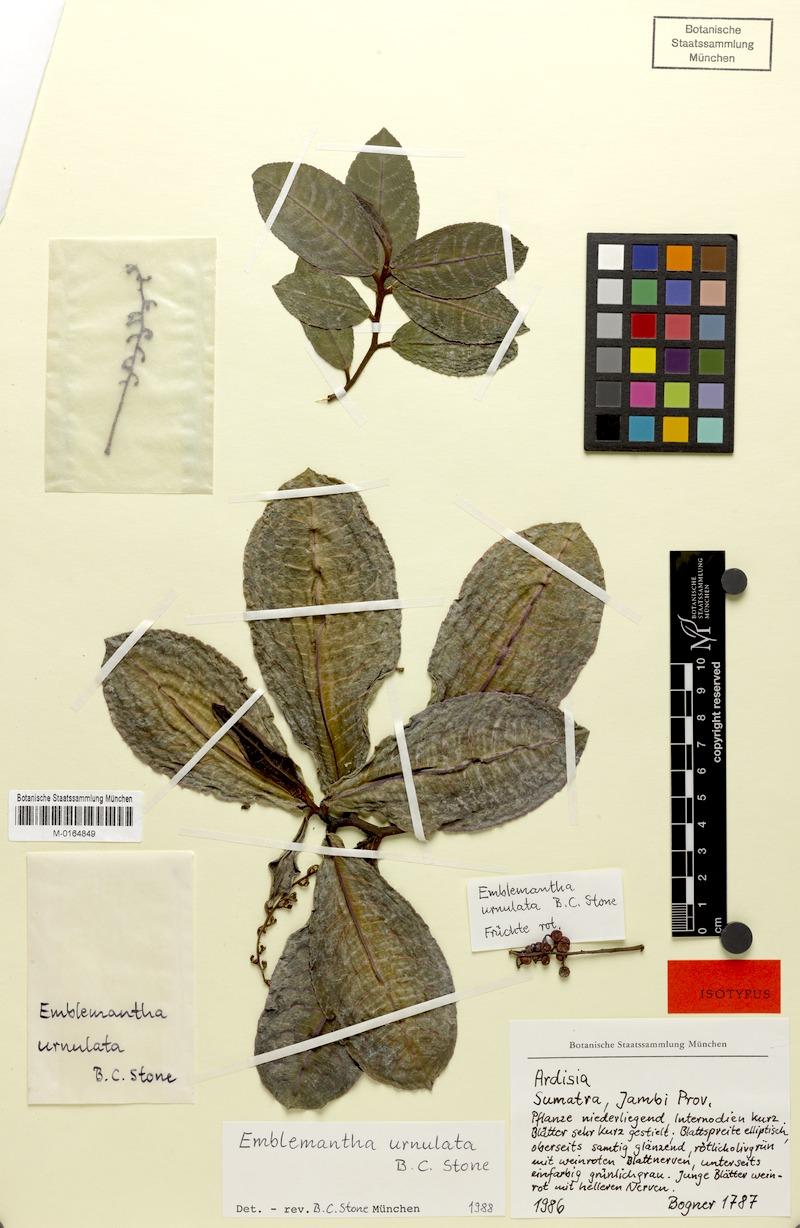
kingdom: Plantae
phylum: Tracheophyta
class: Magnoliopsida
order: Ericales
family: Primulaceae
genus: Tapeinosperma
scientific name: Tapeinosperma squarrosum
